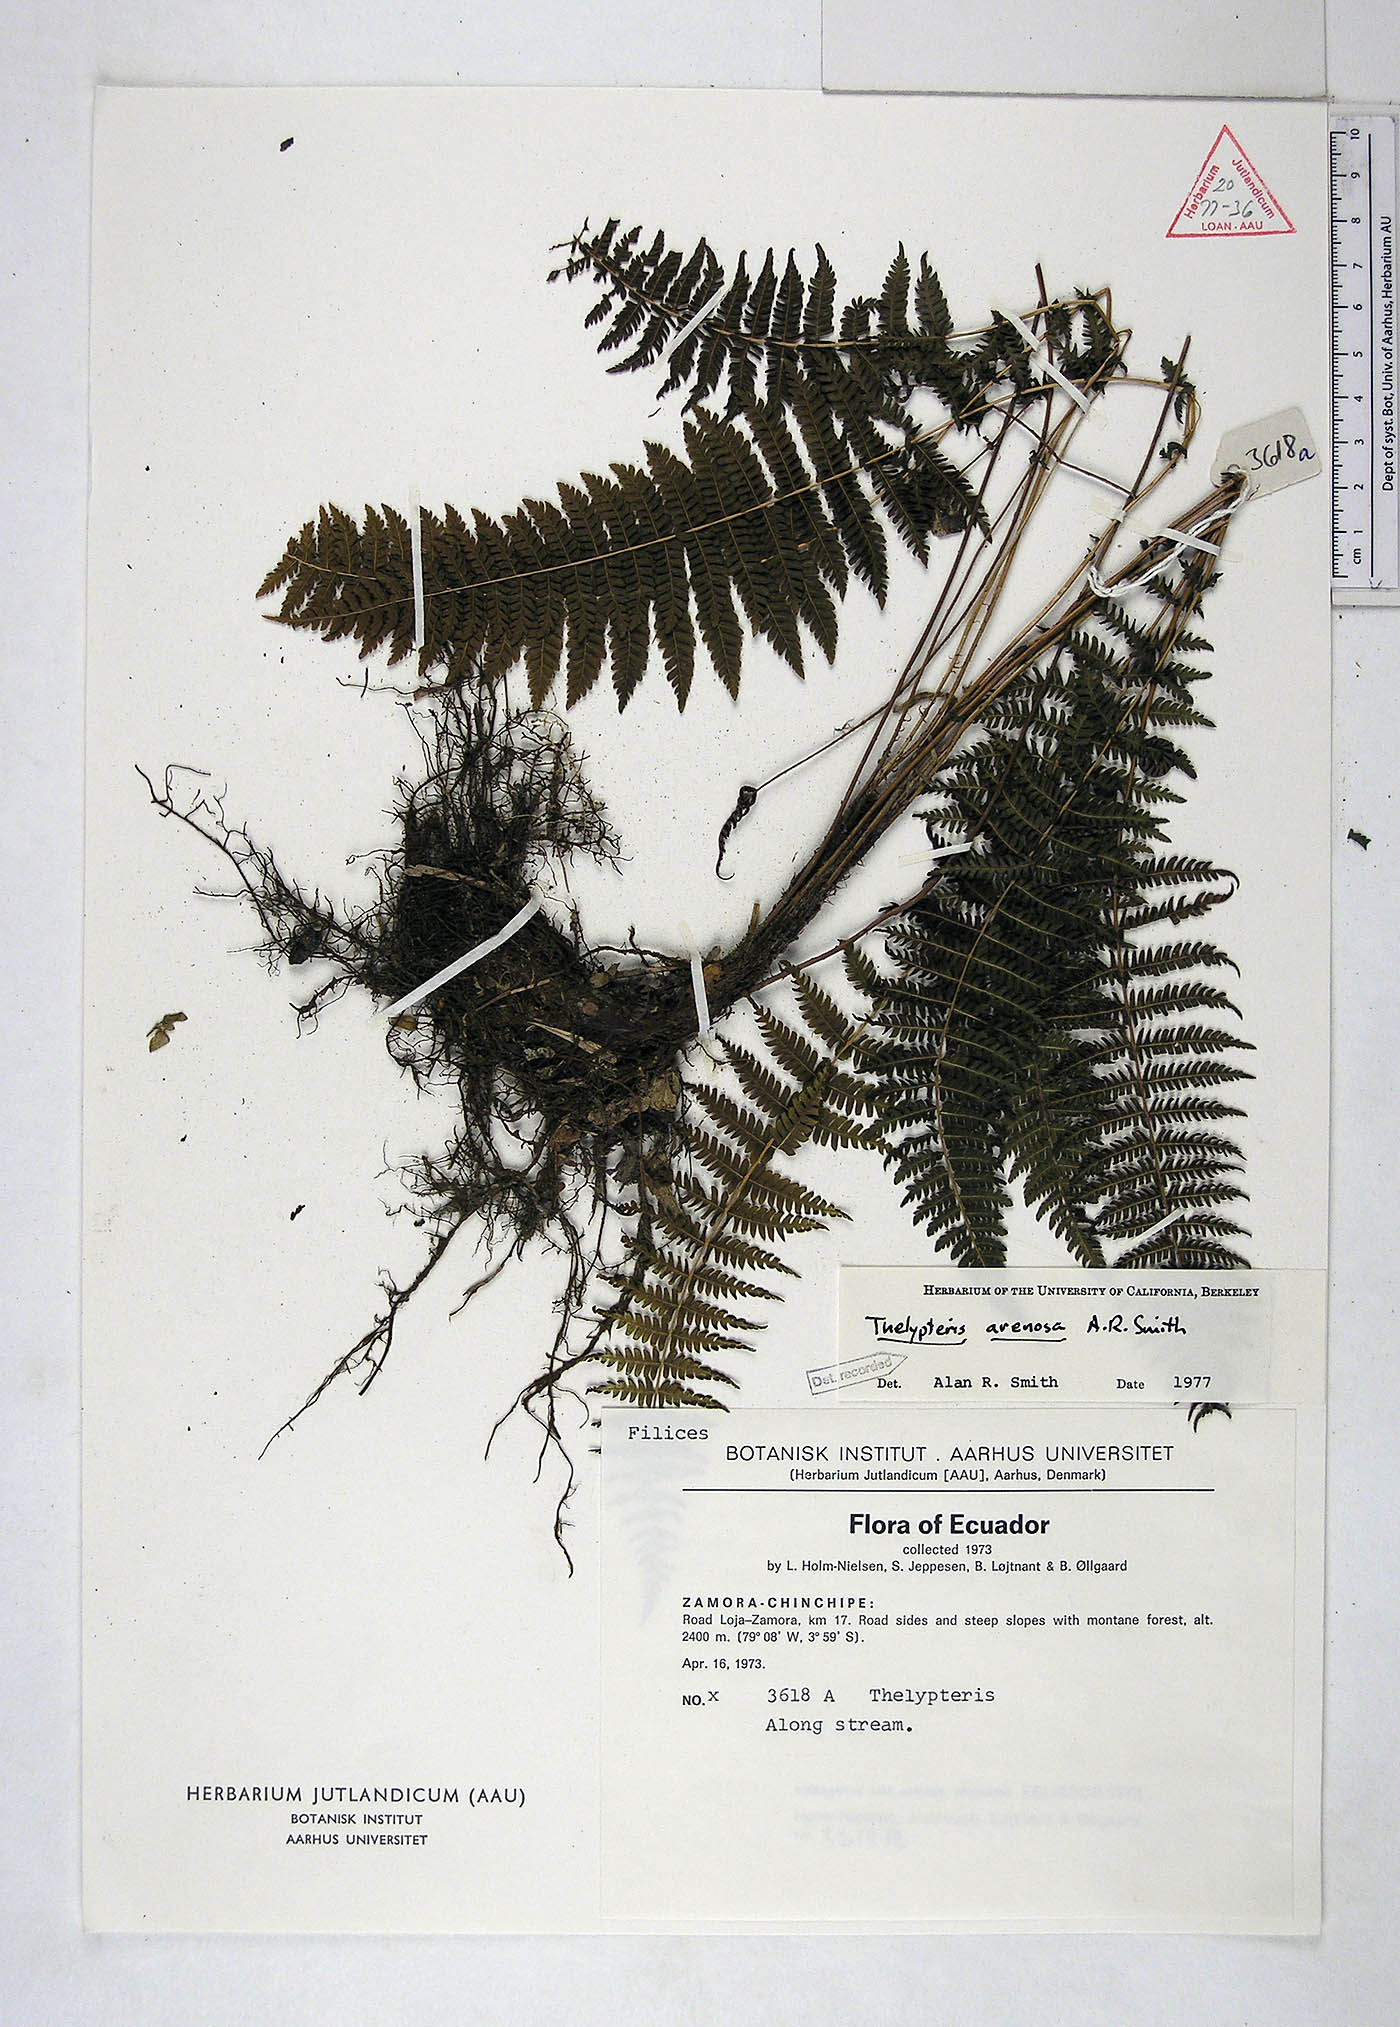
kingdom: Plantae
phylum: Tracheophyta
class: Polypodiopsida
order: Polypodiales
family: Thelypteridaceae
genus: Amauropelta
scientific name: Amauropelta arenosa
